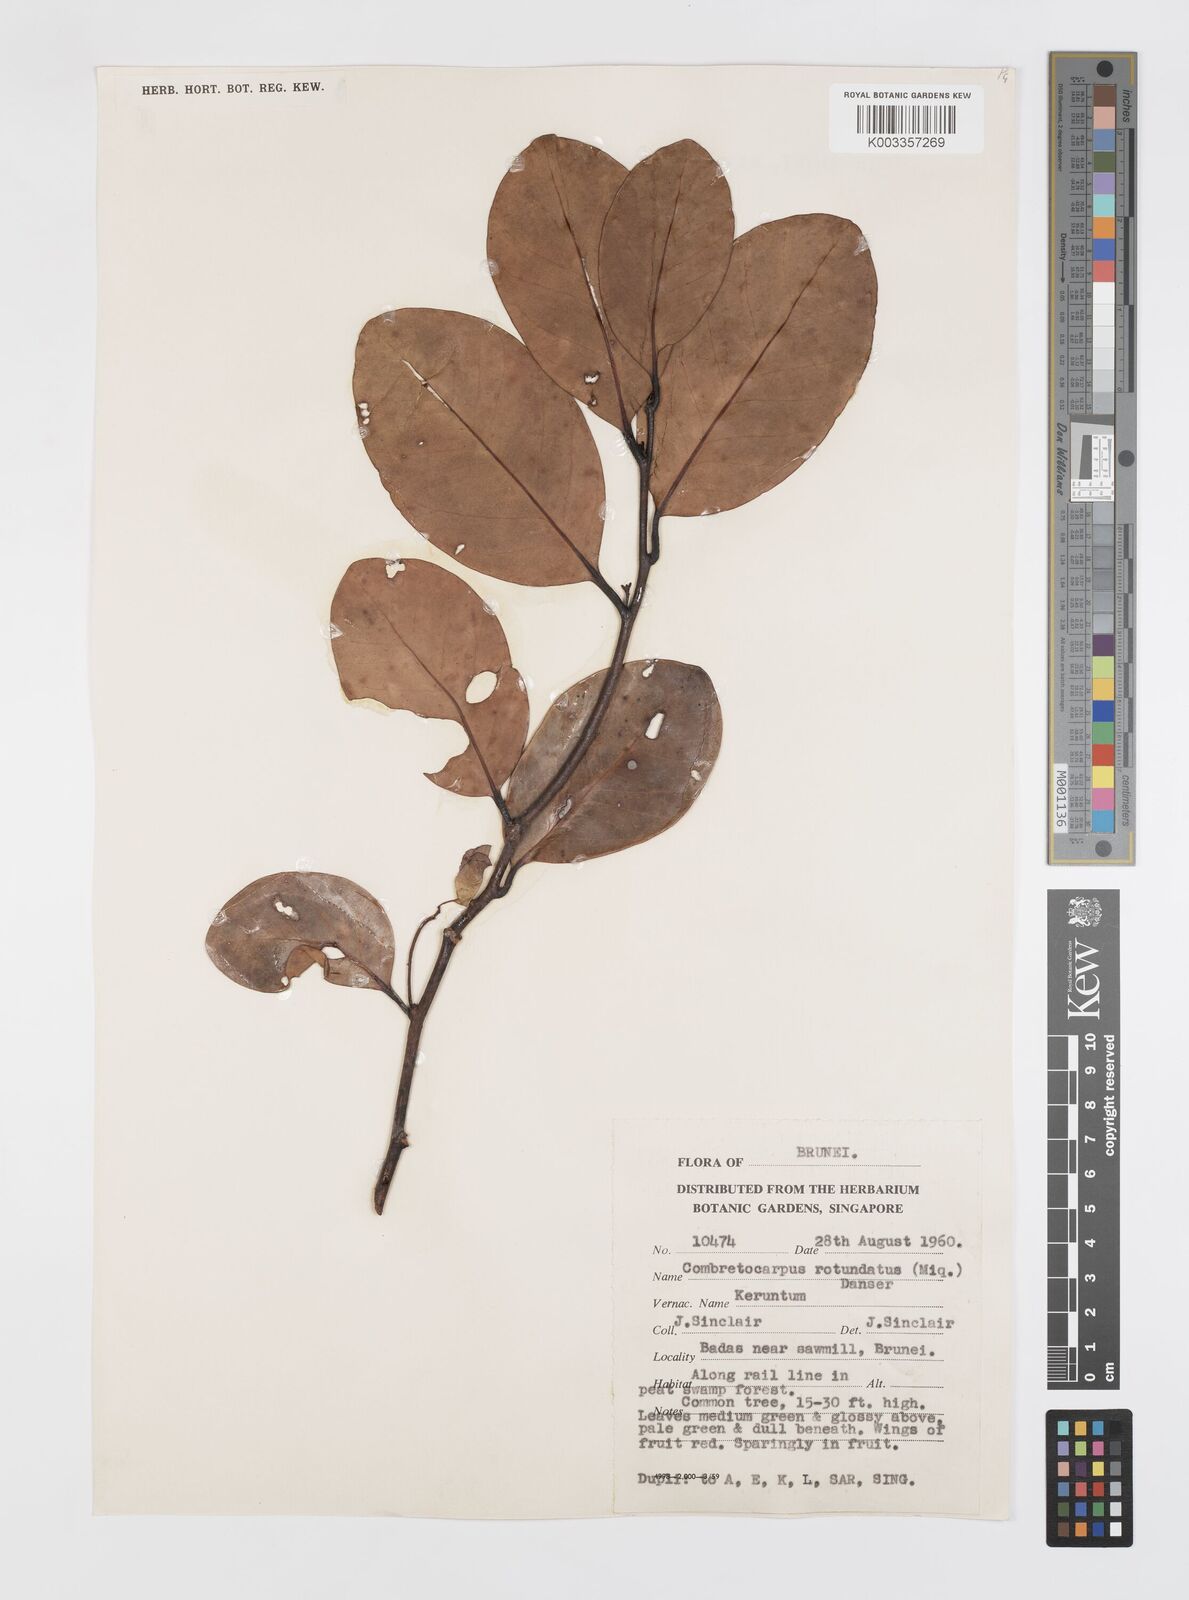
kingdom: Plantae
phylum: Tracheophyta
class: Magnoliopsida
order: Cucurbitales
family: Anisophylleaceae
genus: Combretocarpus
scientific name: Combretocarpus rotundatus
